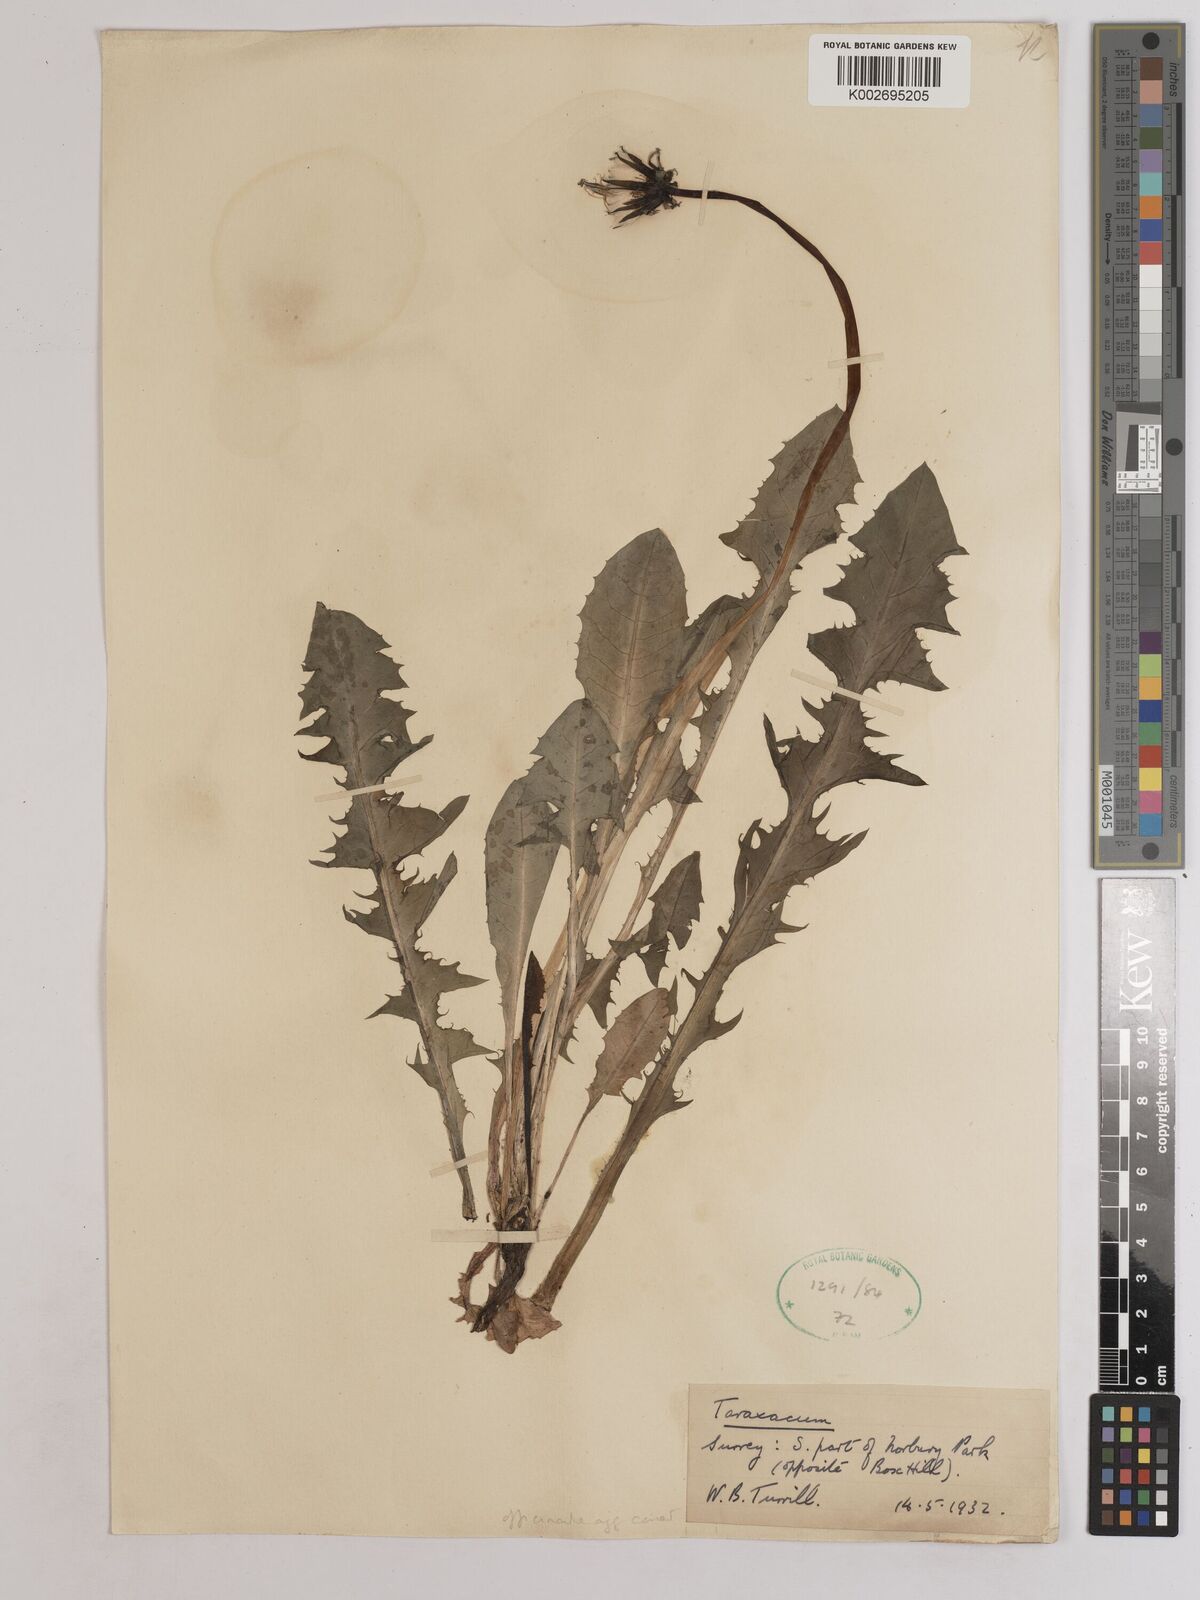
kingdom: Plantae
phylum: Tracheophyta
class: Magnoliopsida
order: Asterales
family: Asteraceae
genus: Taraxacum
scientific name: Taraxacum officinale
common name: Common dandelion
